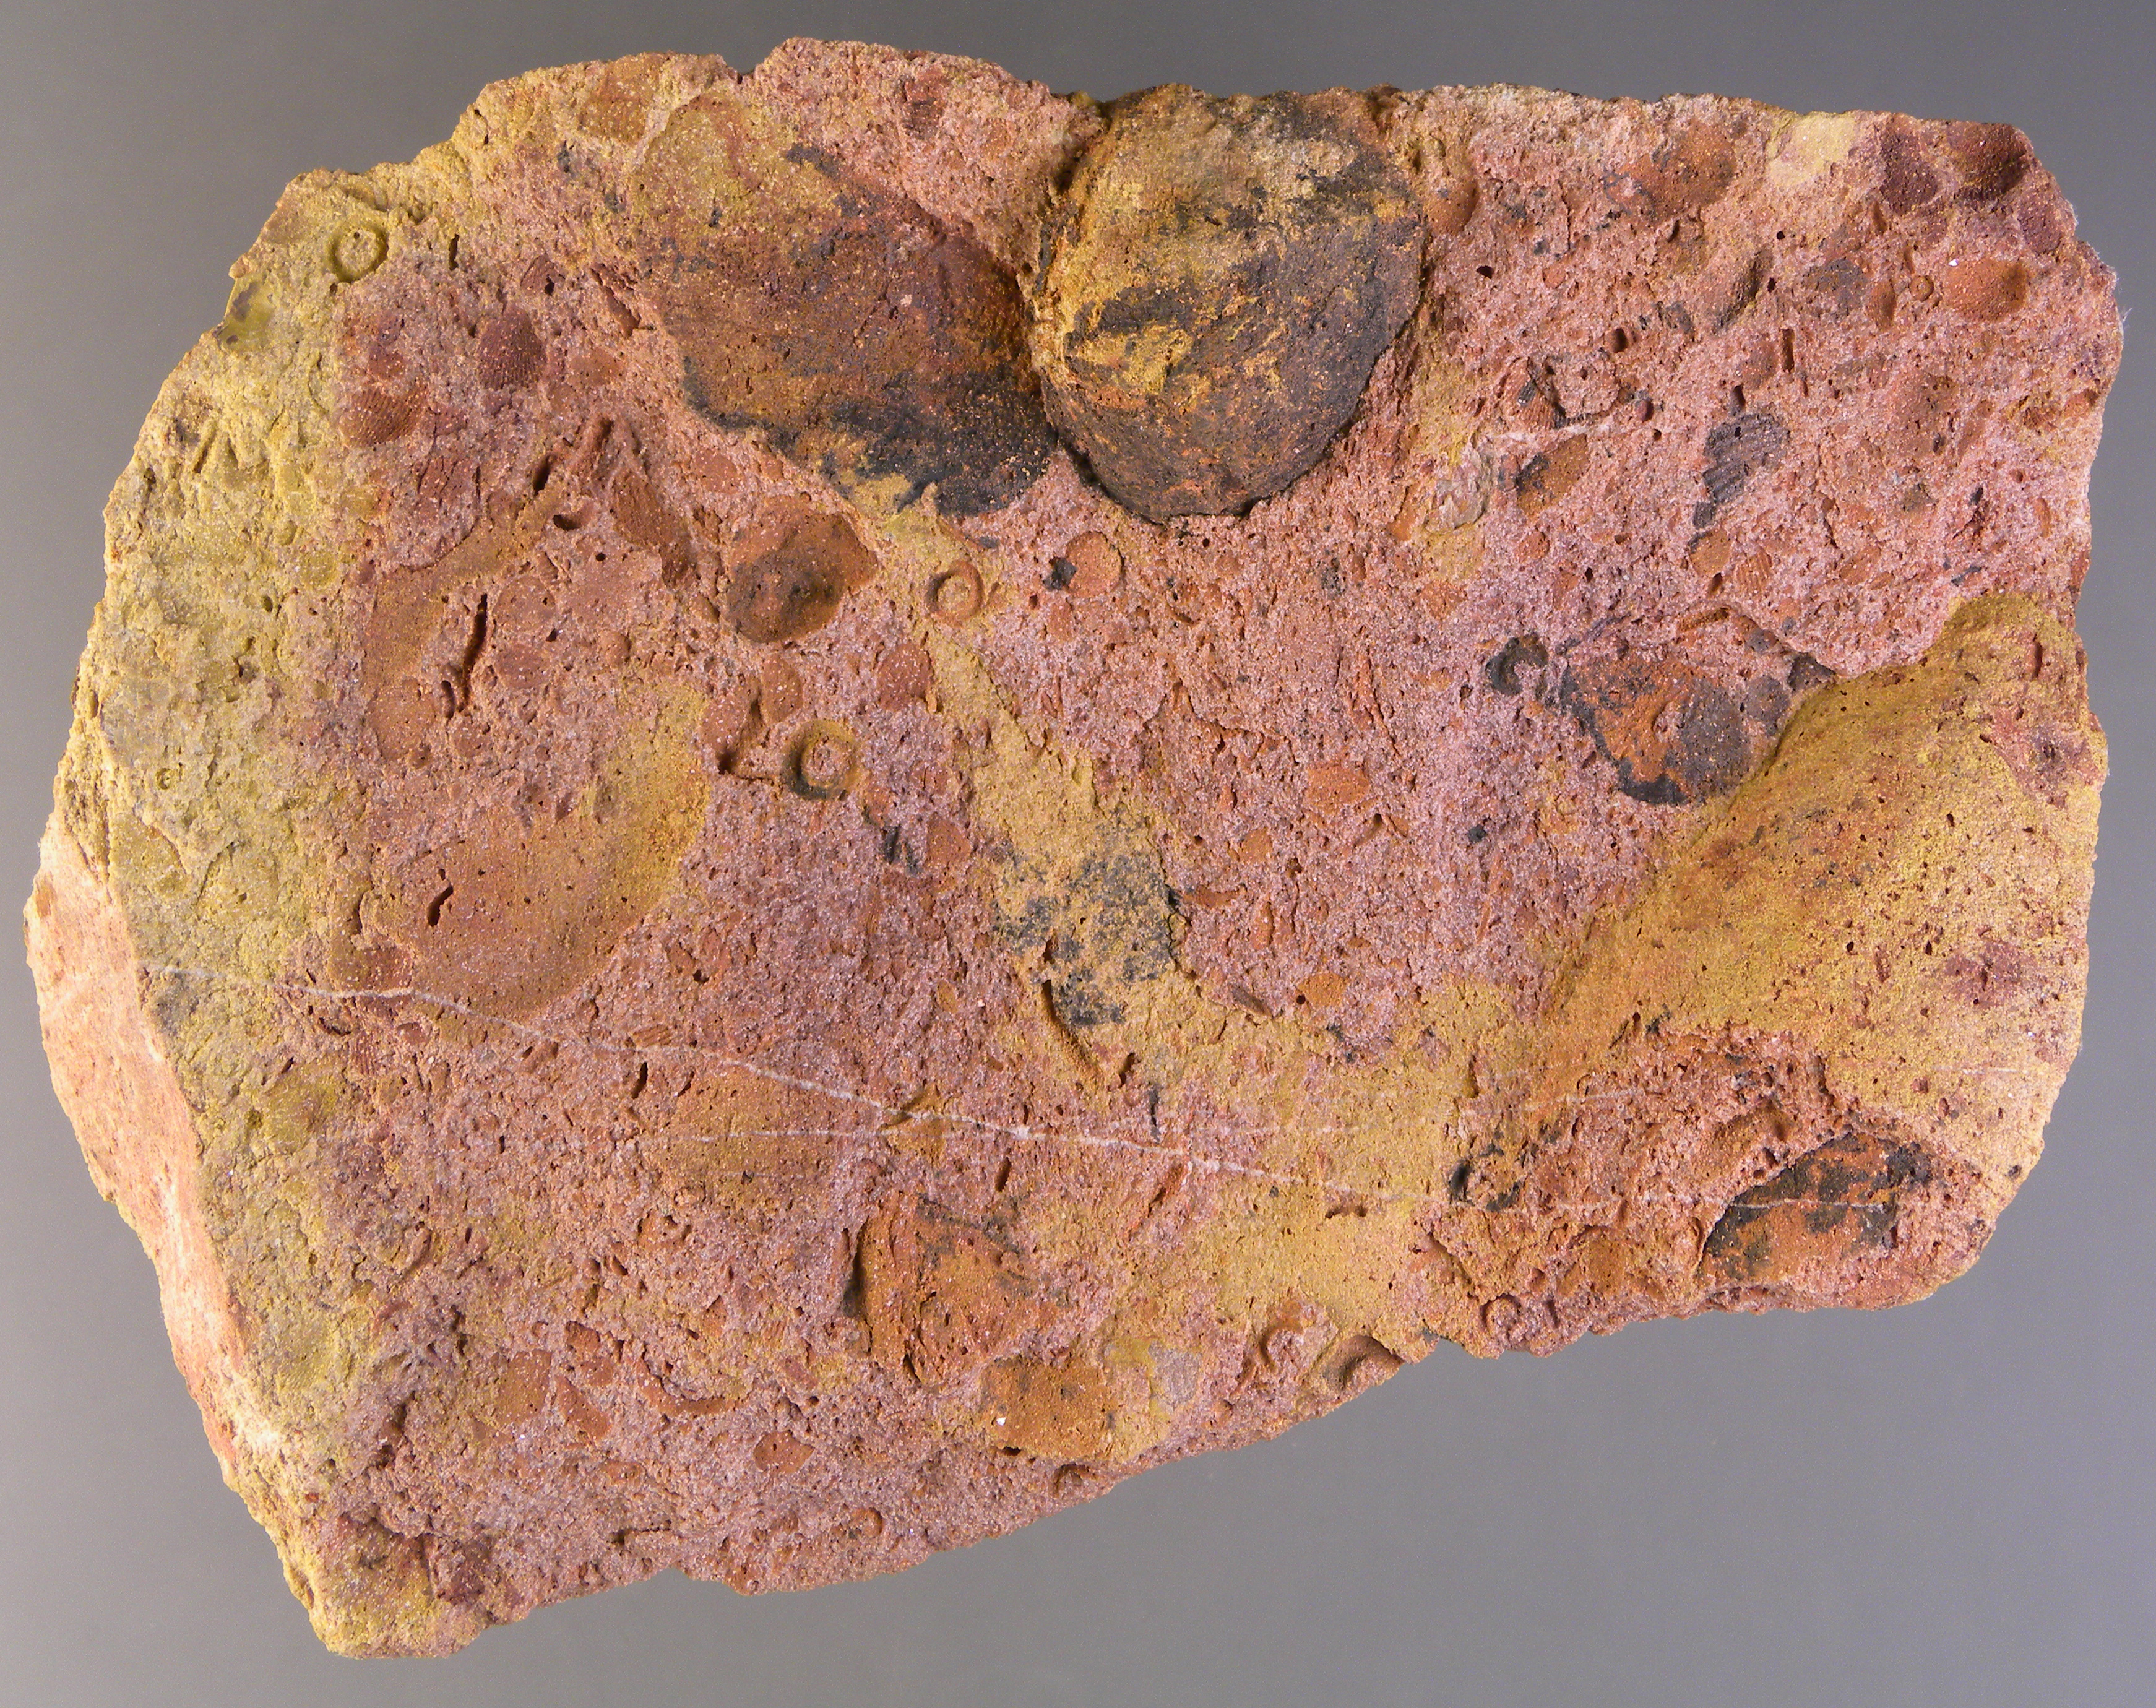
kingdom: Animalia
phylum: Mollusca
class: Bivalvia
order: Ostreida
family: Pterineidae
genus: Leptodesma
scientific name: Leptodesma
